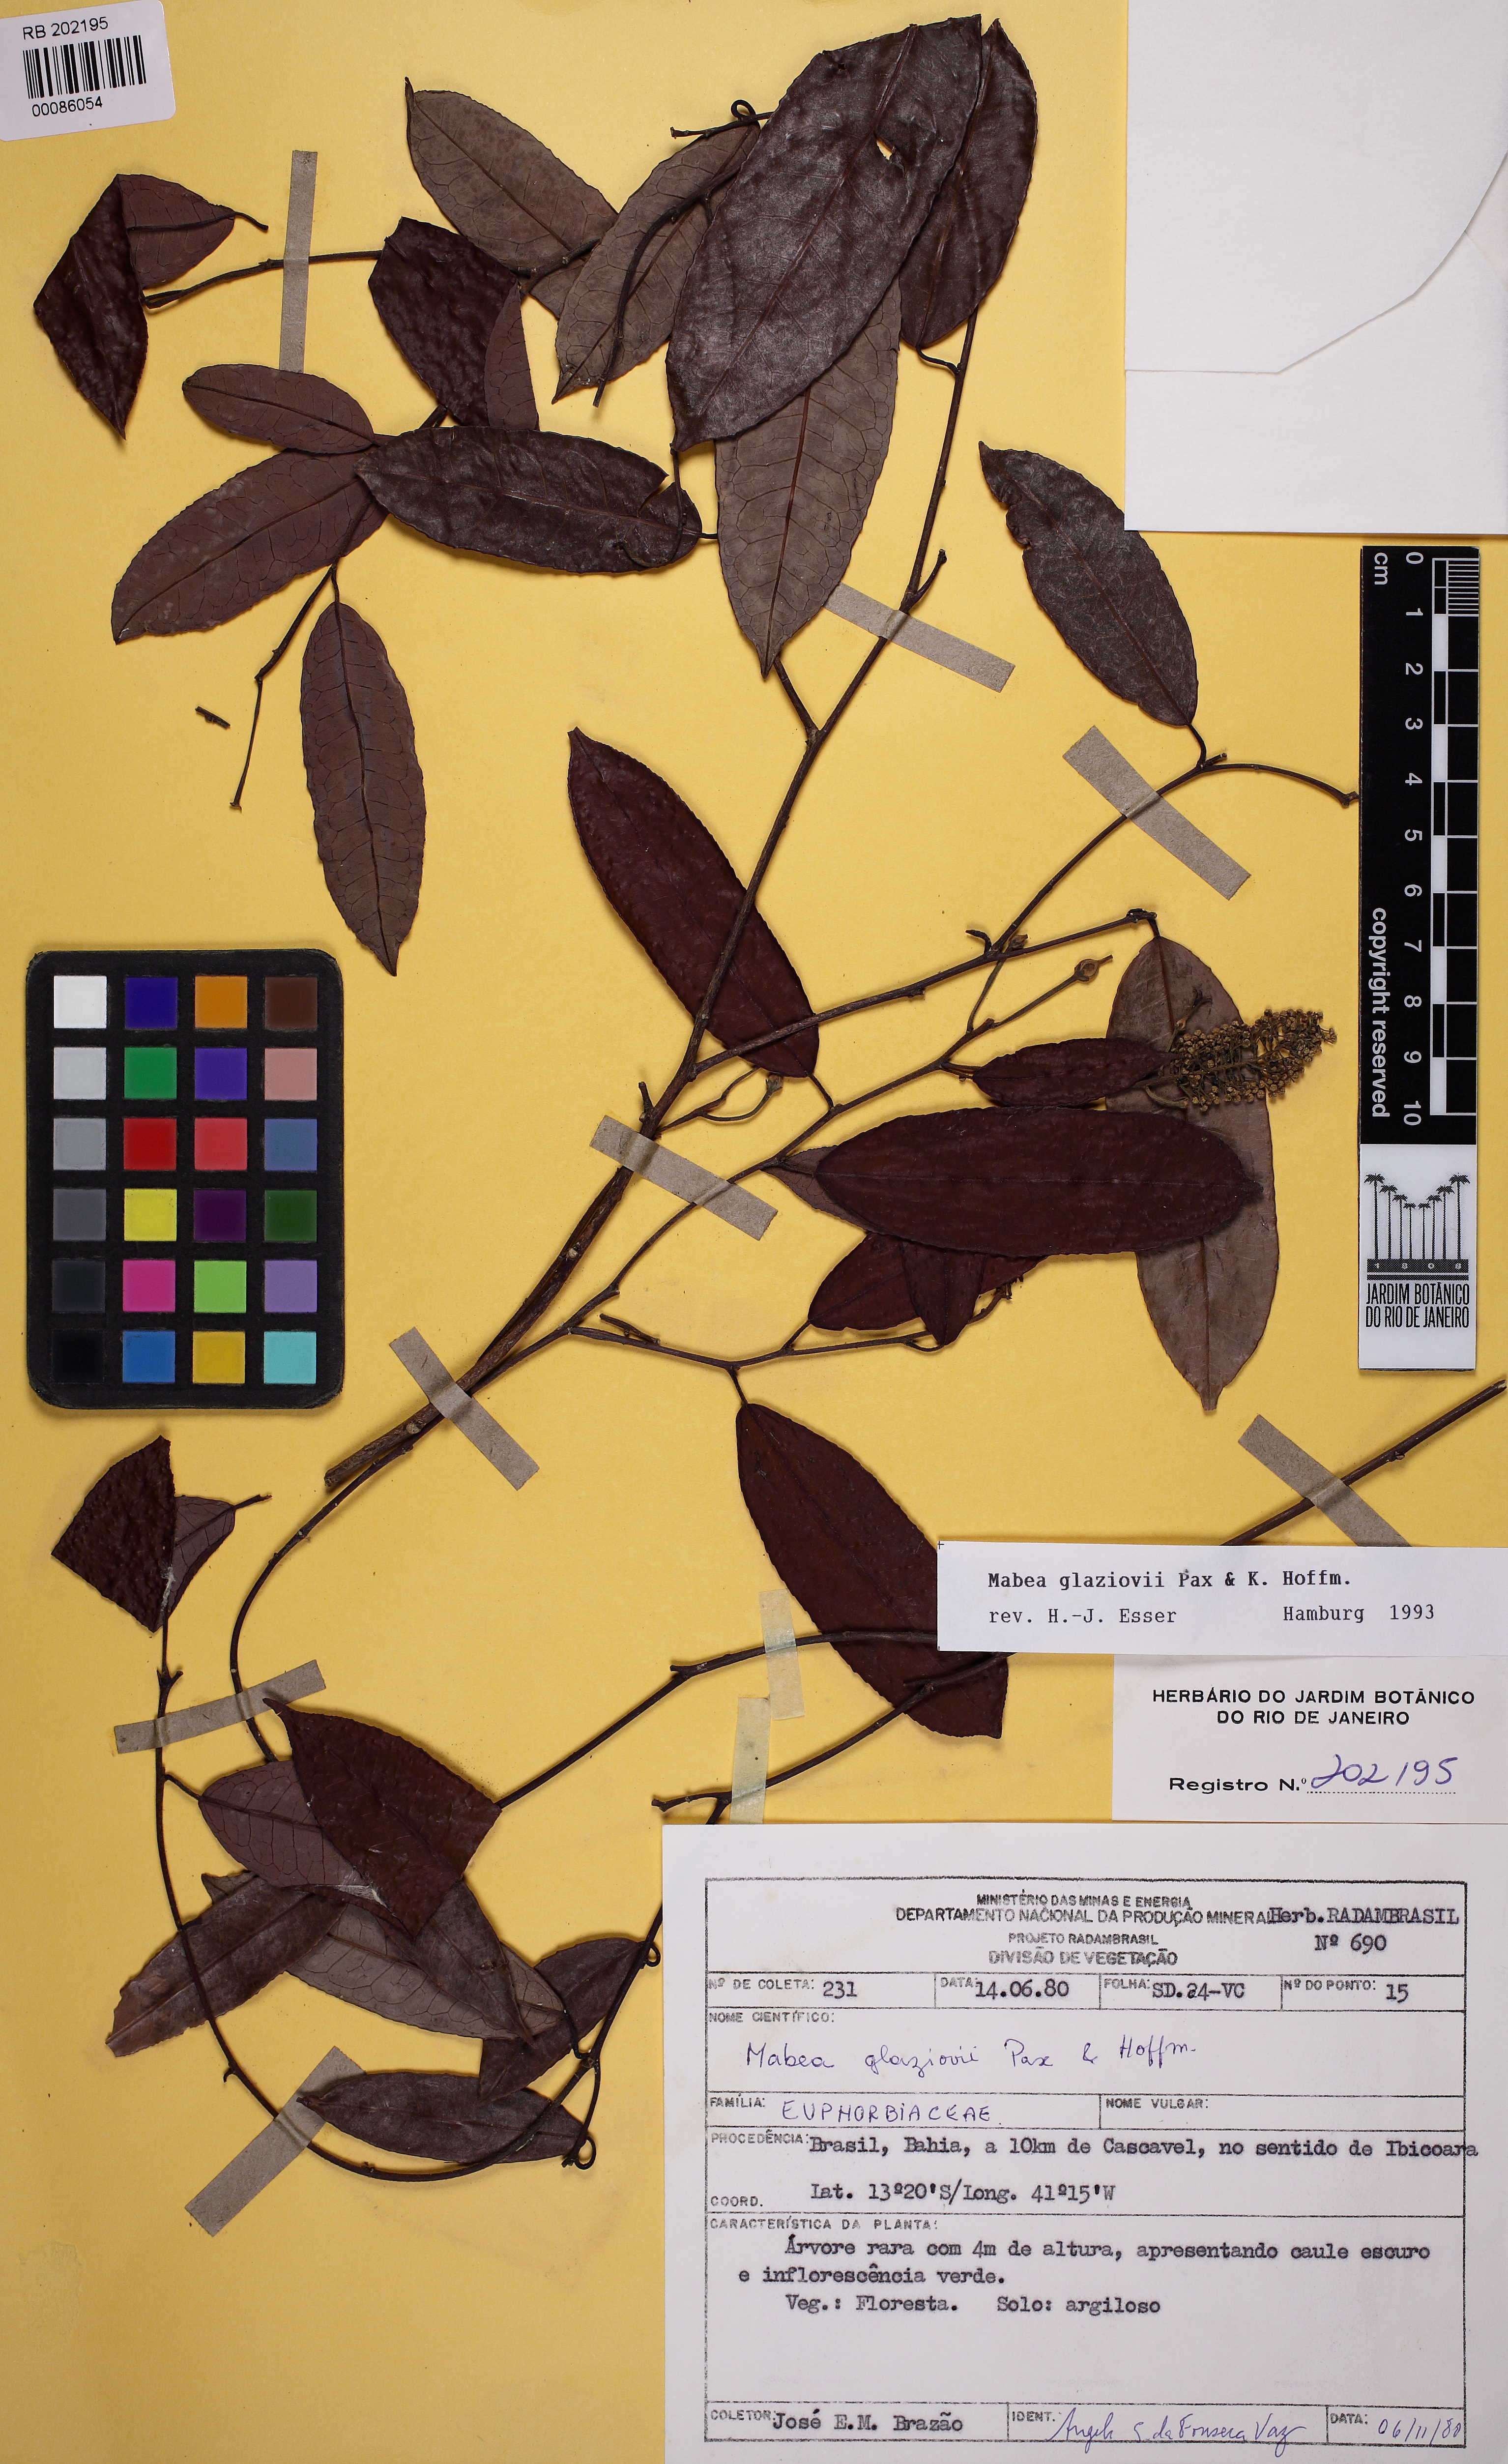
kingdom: Plantae
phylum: Tracheophyta
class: Magnoliopsida
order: Malpighiales
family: Euphorbiaceae
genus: Mabea
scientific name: Mabea glaziovii
